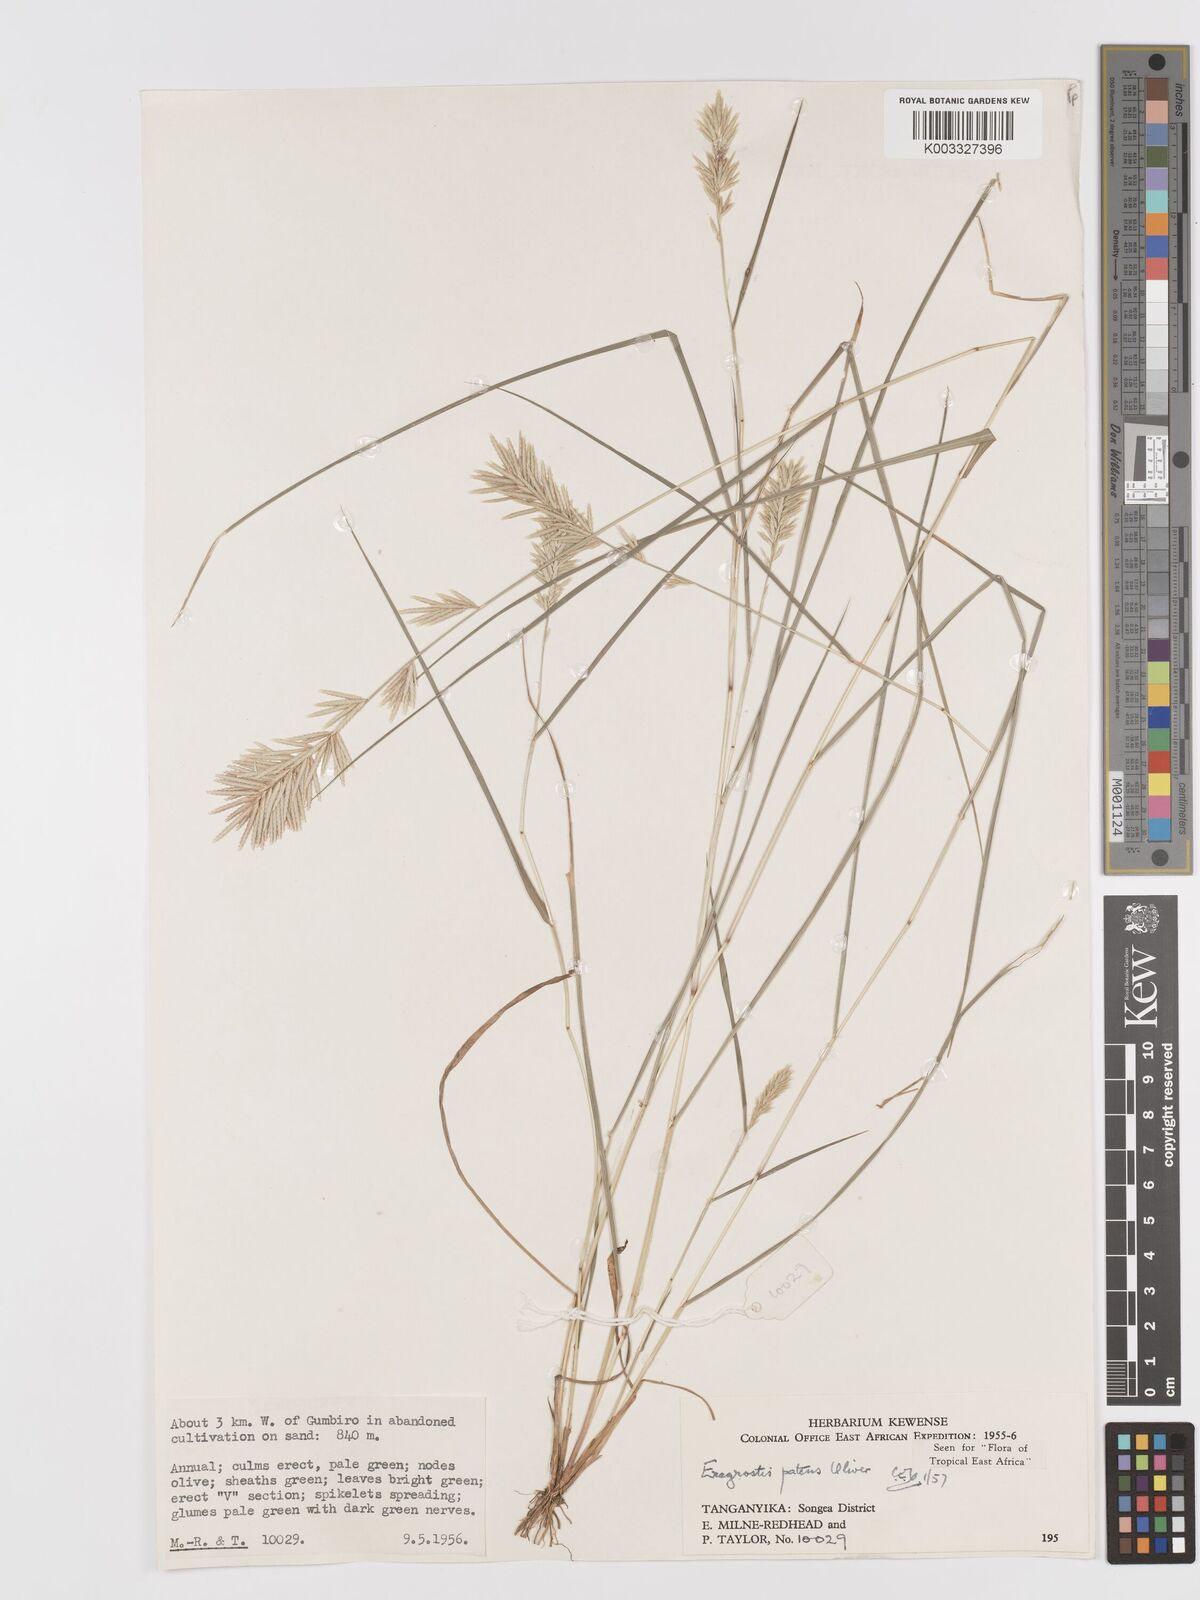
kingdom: Plantae
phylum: Tracheophyta
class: Liliopsida
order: Poales
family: Poaceae
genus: Eragrostis
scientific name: Eragrostis patens
